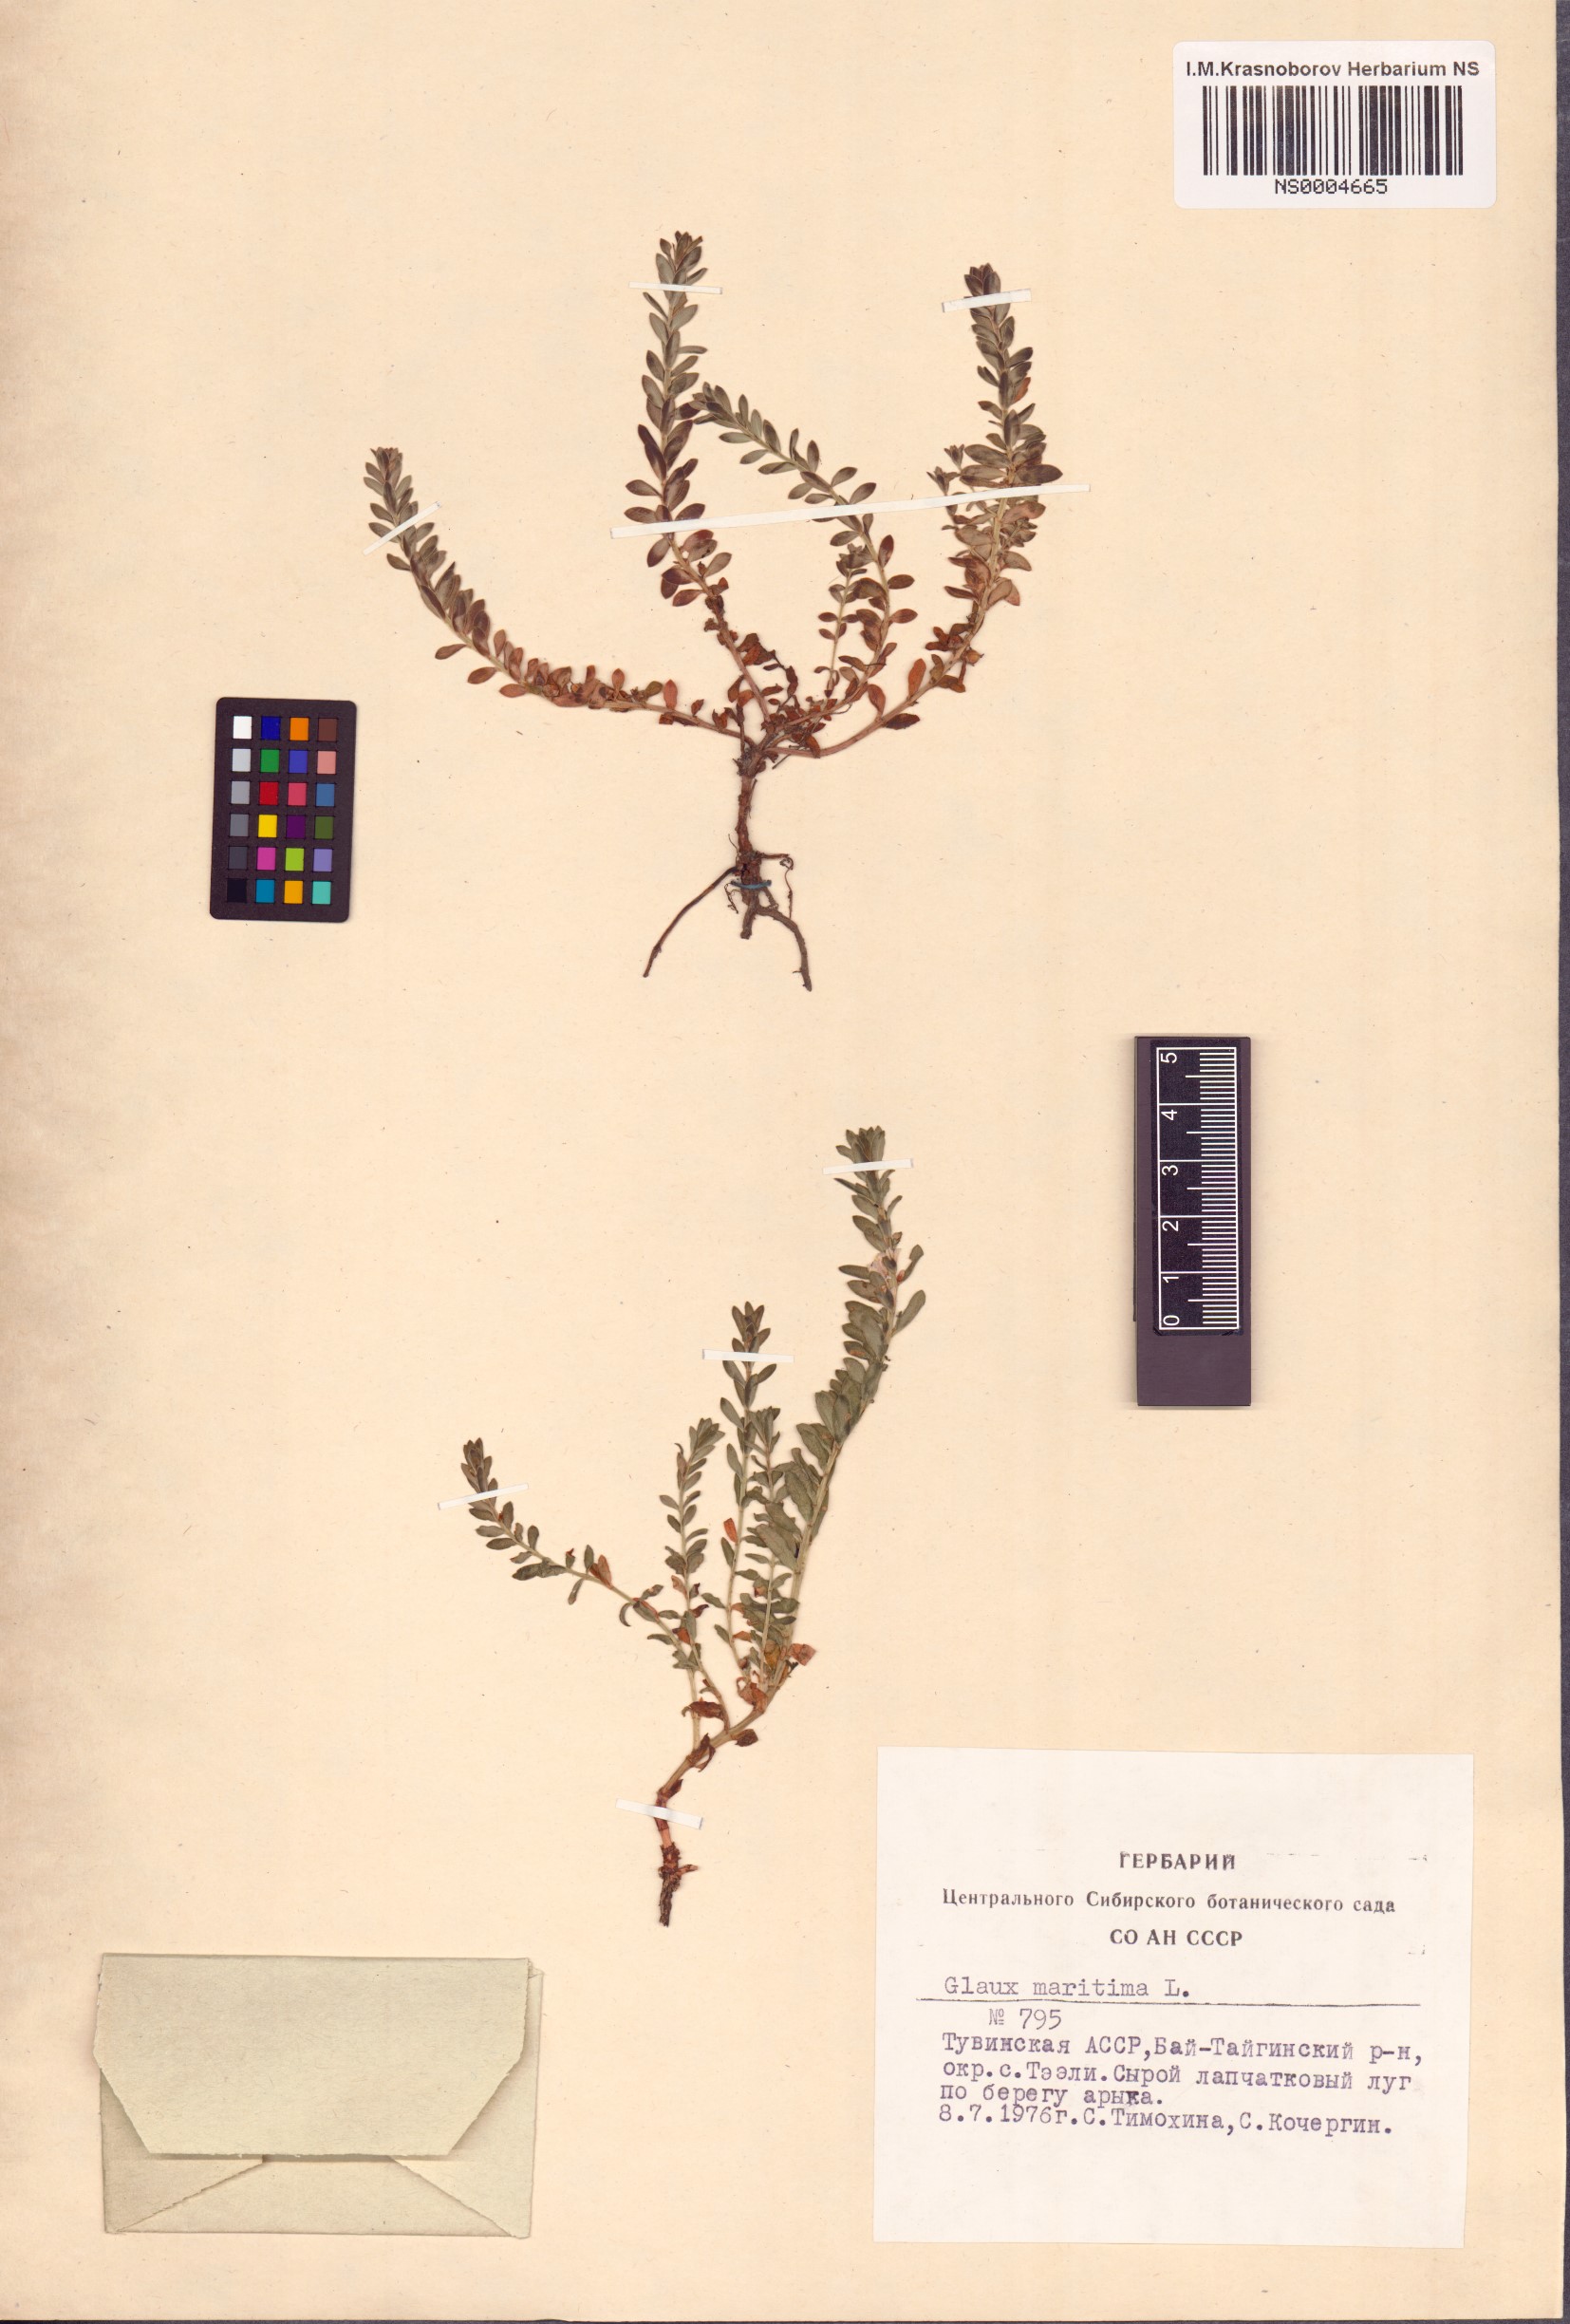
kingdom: Plantae
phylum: Tracheophyta
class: Magnoliopsida
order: Ericales
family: Primulaceae
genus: Lysimachia
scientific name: Lysimachia maritima
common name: Sea milkwort
